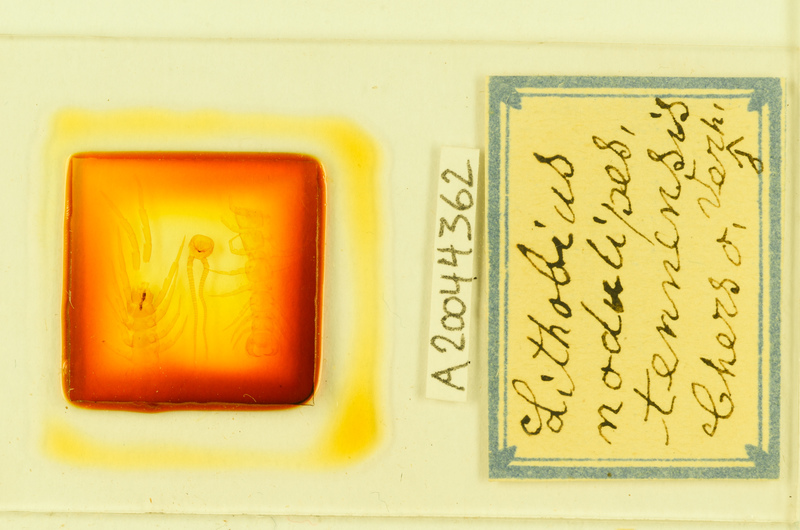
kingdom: Animalia
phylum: Arthropoda
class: Chilopoda
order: Lithobiomorpha
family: Lithobiidae
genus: Lithobius
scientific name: Lithobius nodulipes
